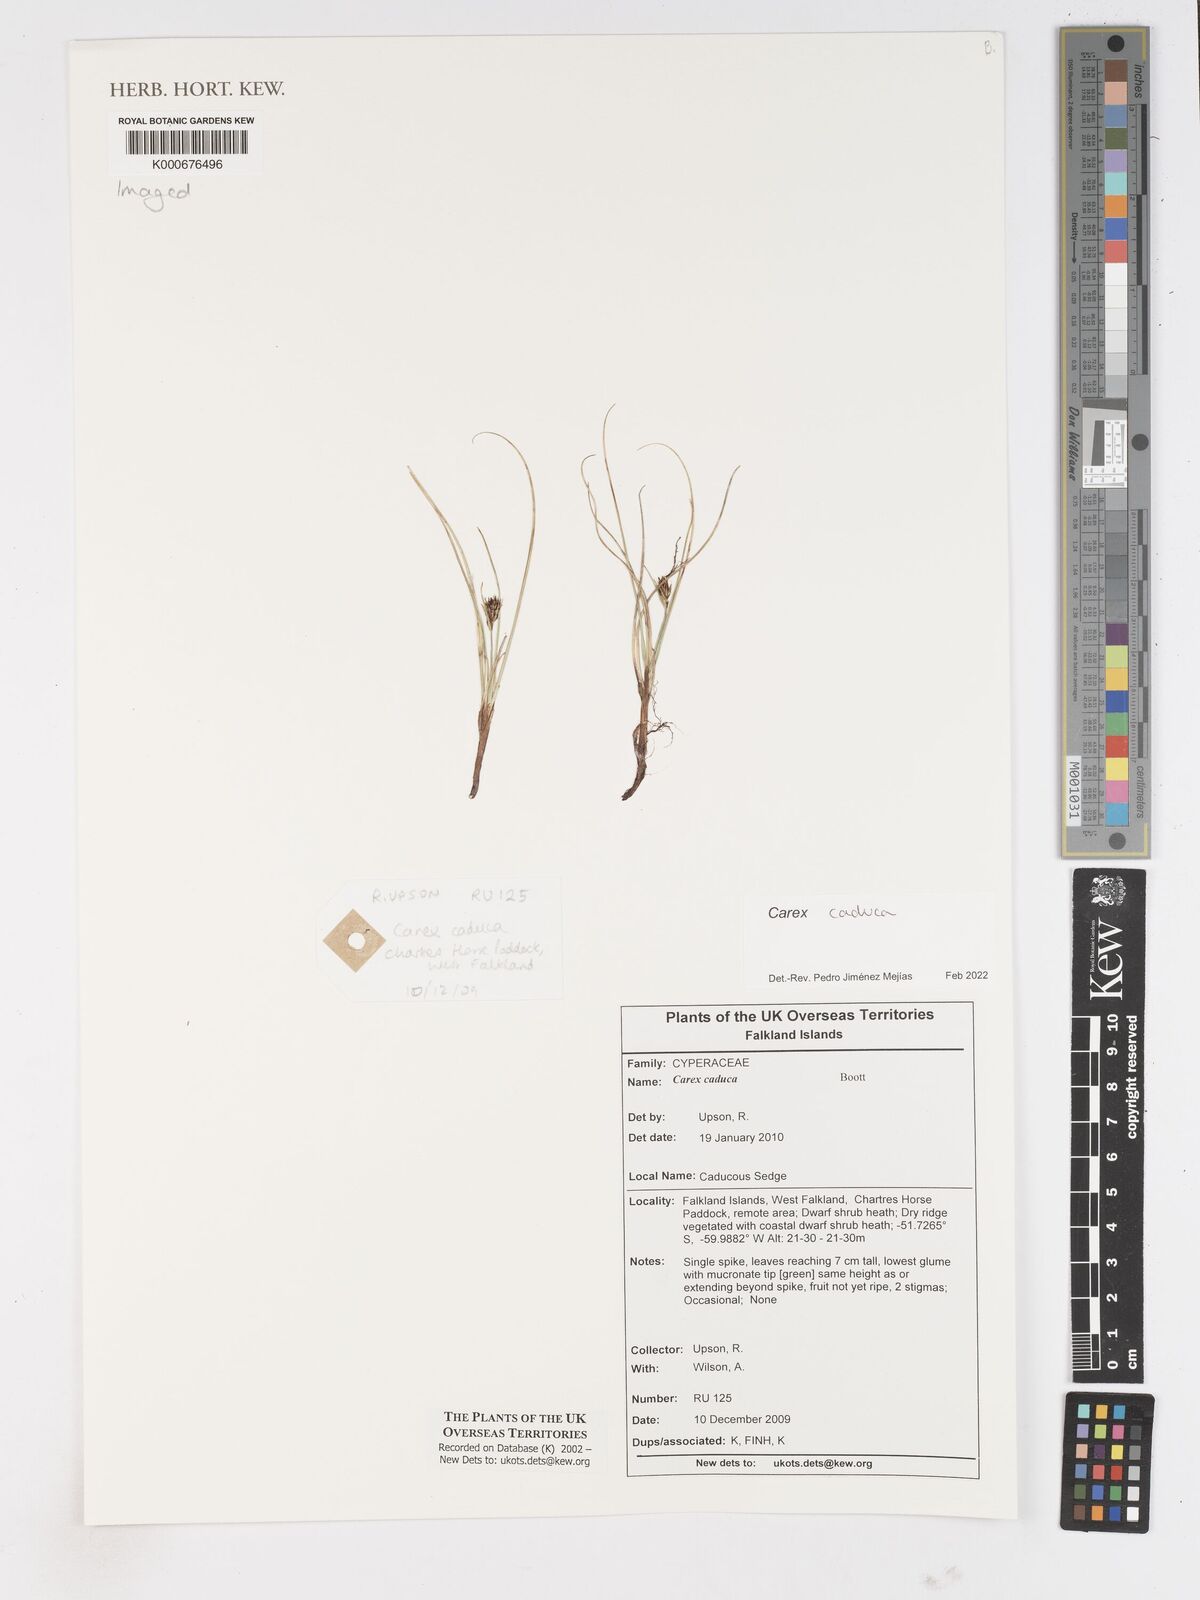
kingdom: Plantae
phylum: Tracheophyta
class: Liliopsida
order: Poales
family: Cyperaceae
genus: Carex
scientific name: Carex caduca
